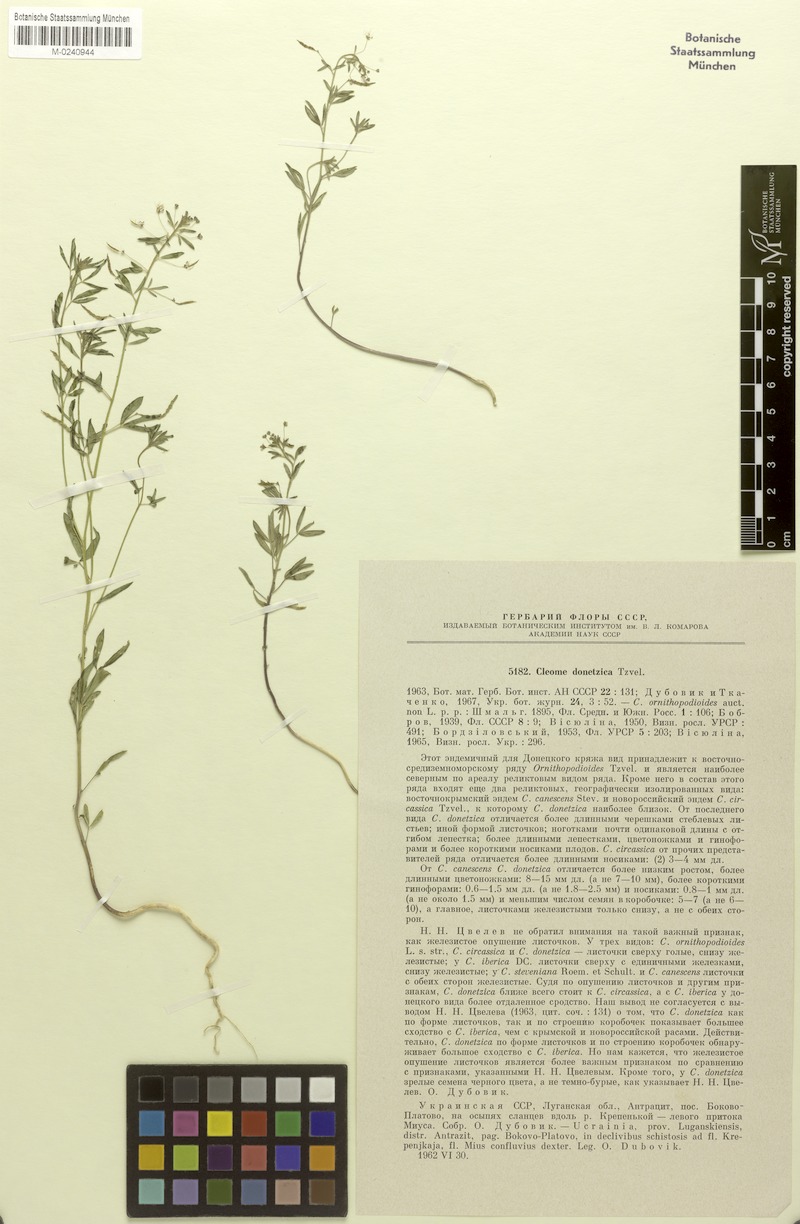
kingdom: Plantae
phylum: Tracheophyta
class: Magnoliopsida
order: Brassicales
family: Cleomaceae
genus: Cleome
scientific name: Cleome iberica
